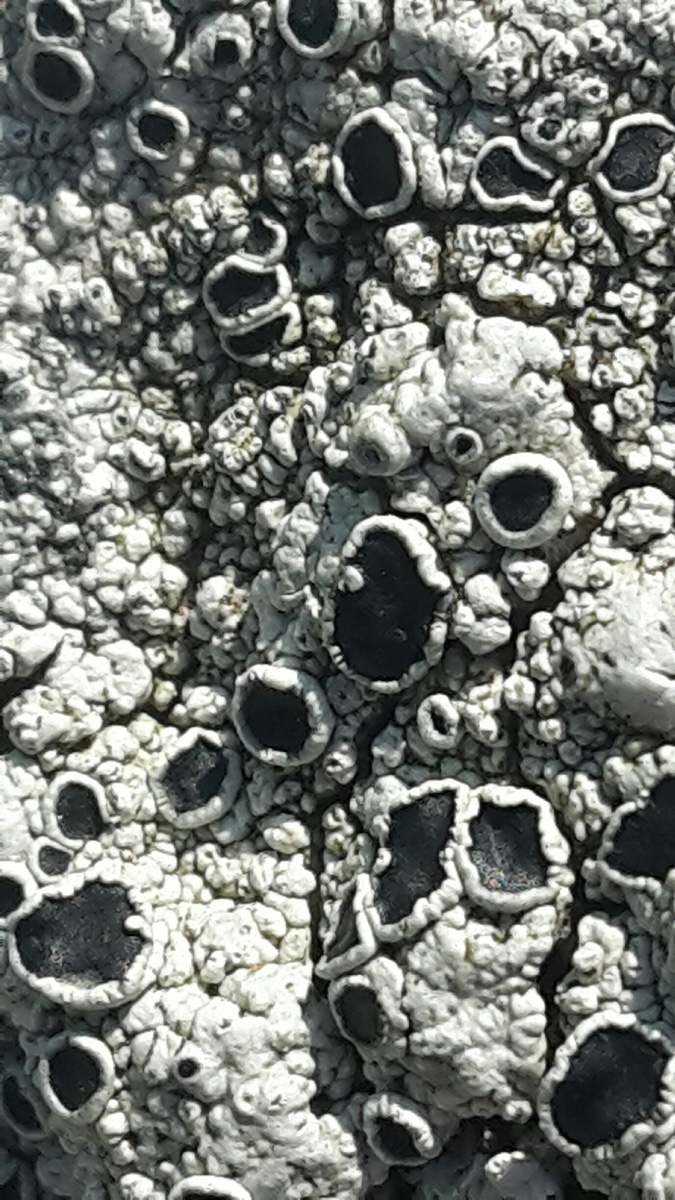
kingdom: Fungi
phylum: Ascomycota
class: Lecanoromycetes
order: Lecanorales
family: Tephromelataceae
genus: Tephromela
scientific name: Tephromela atra
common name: sortfrugtet kantskivelav
